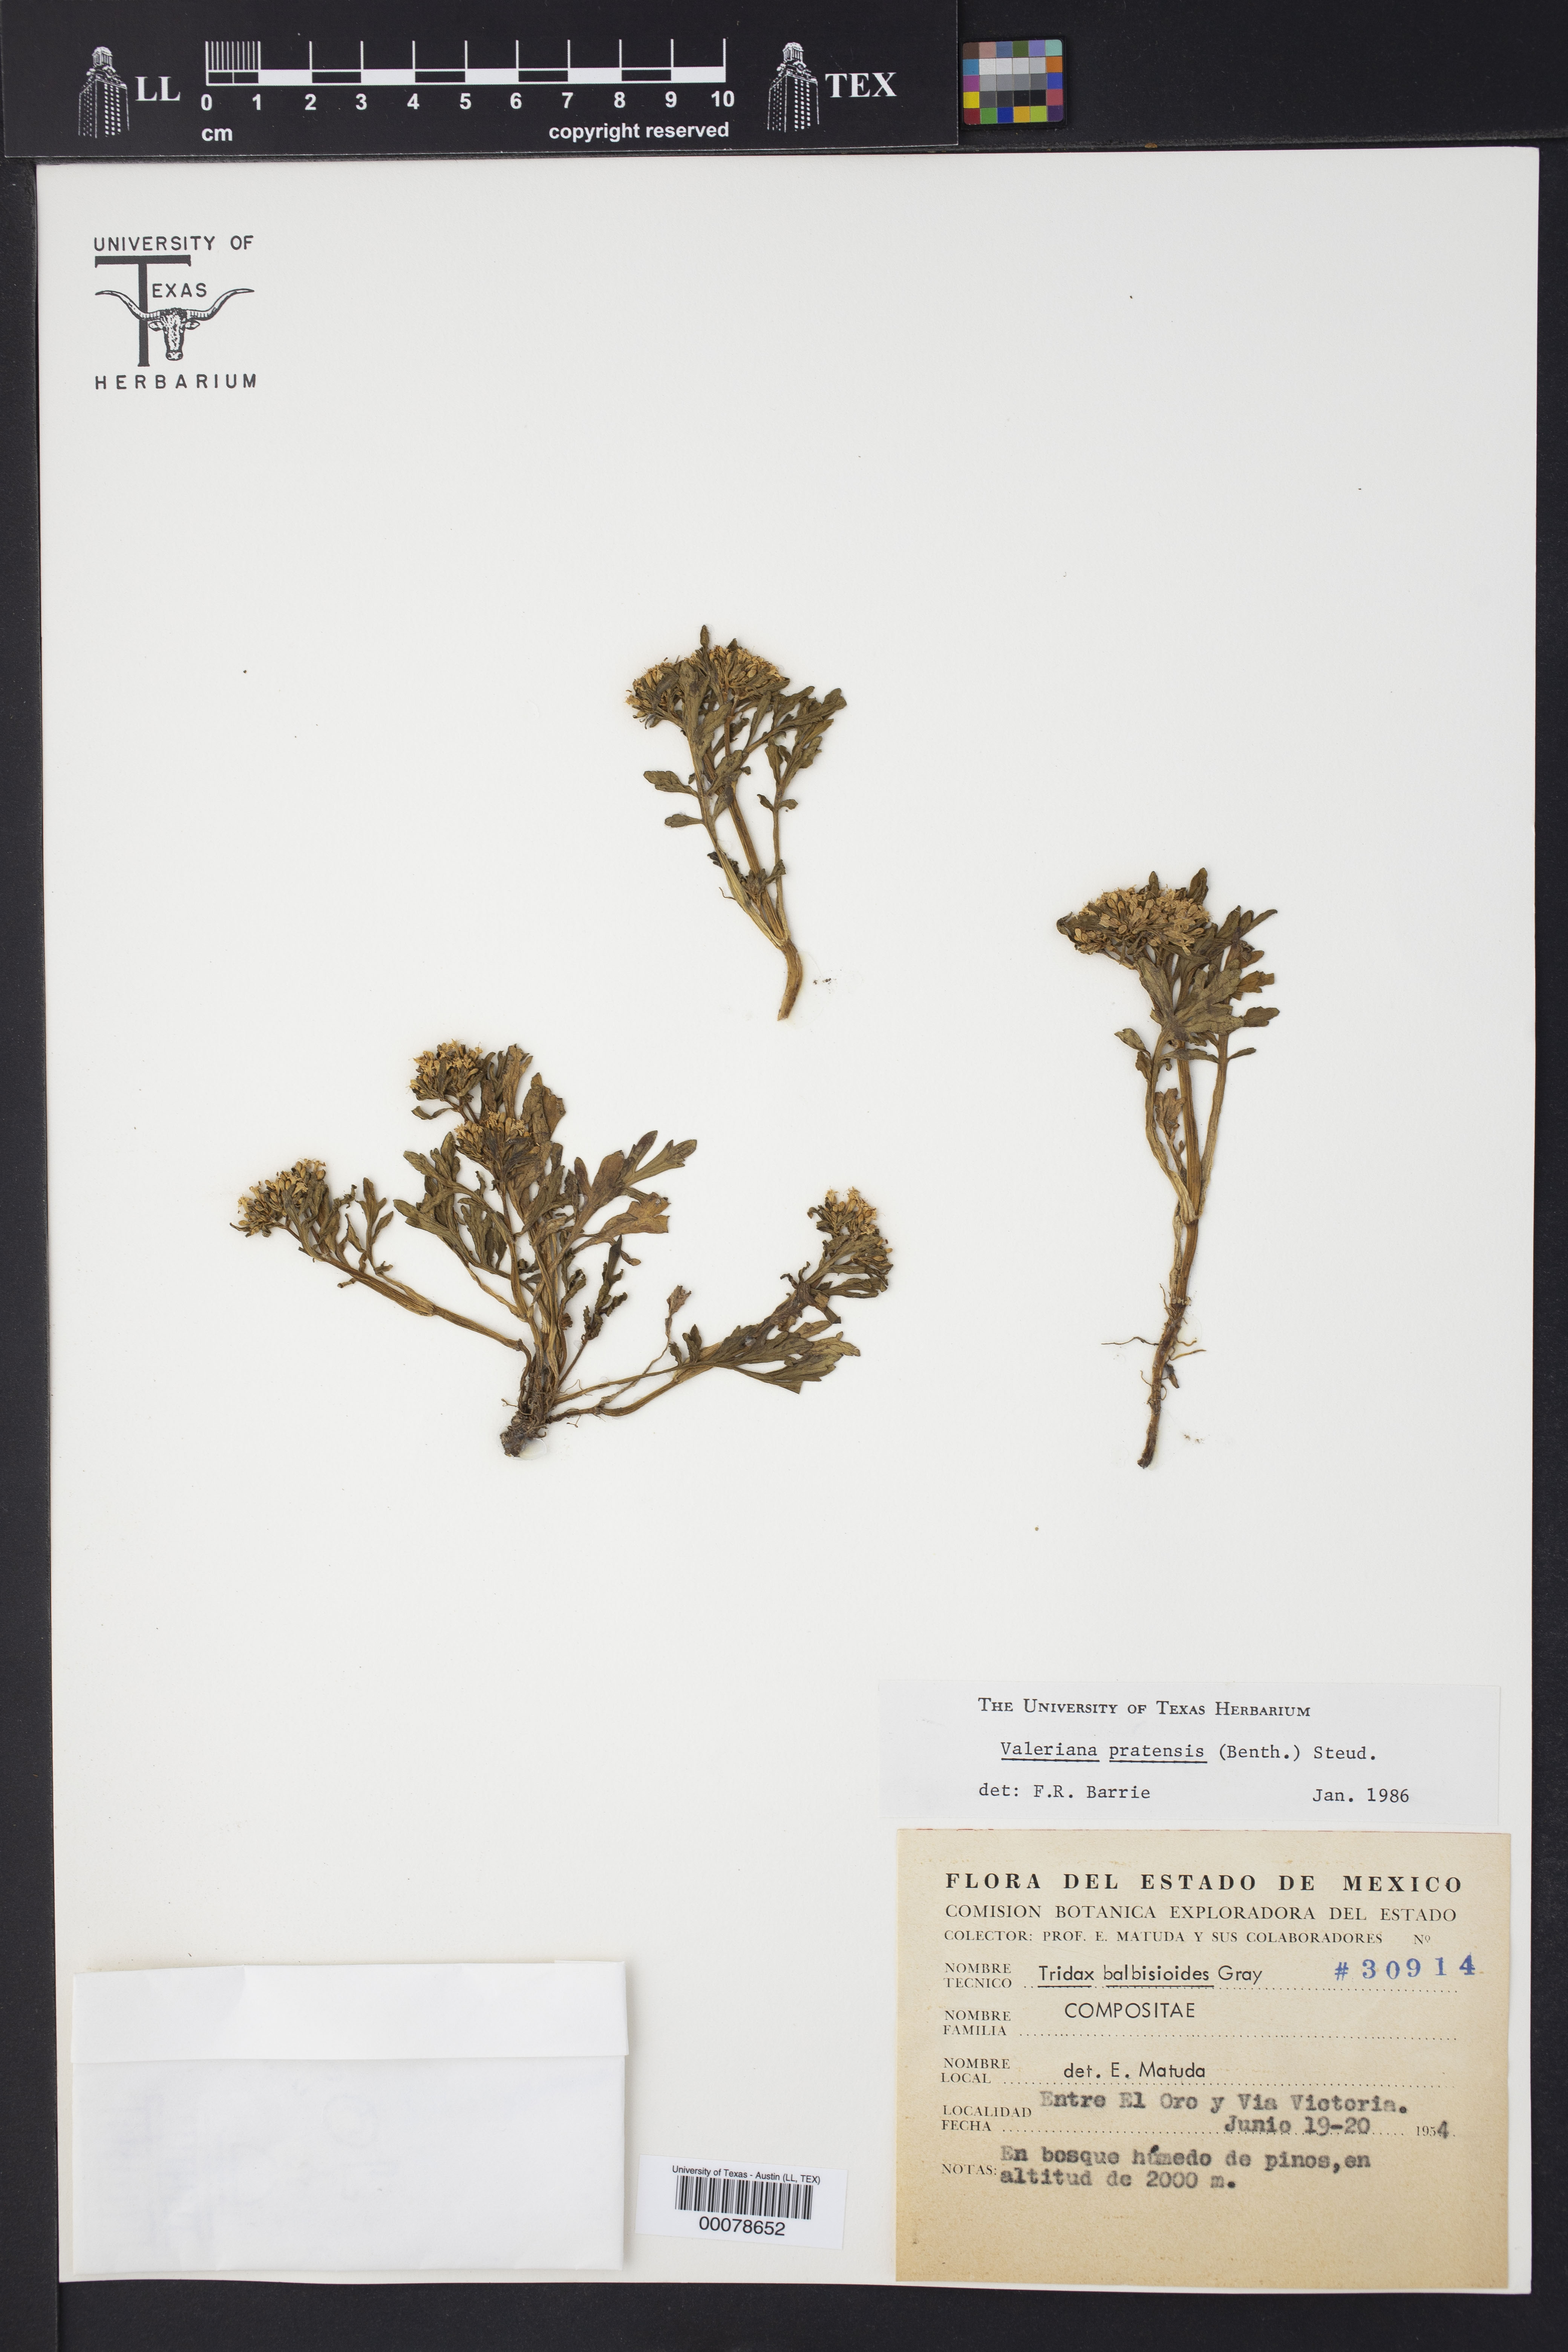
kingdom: Plantae
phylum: Tracheophyta
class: Magnoliopsida
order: Dipsacales
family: Caprifoliaceae
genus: Valeriana
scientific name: Valeriana pratensis
